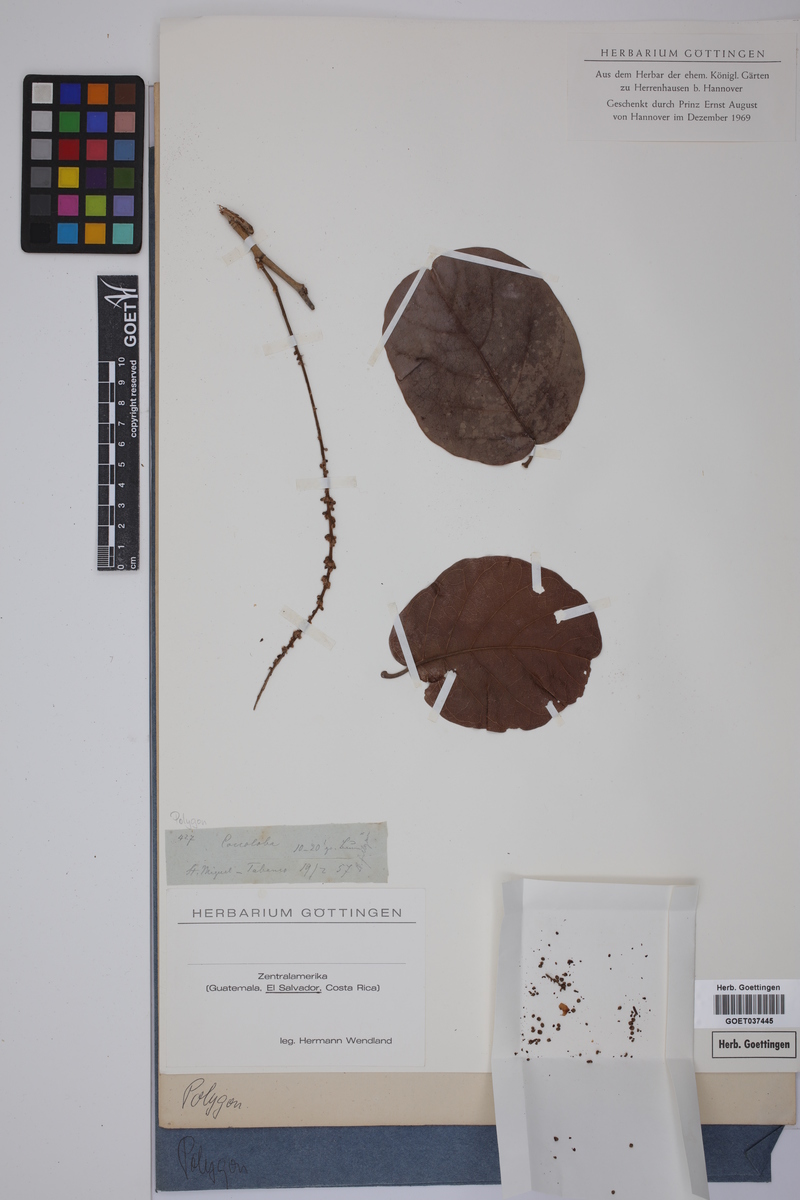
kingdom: Plantae
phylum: Tracheophyta
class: Magnoliopsida
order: Caryophyllales
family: Polygonaceae
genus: Coccoloba
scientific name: Coccoloba
